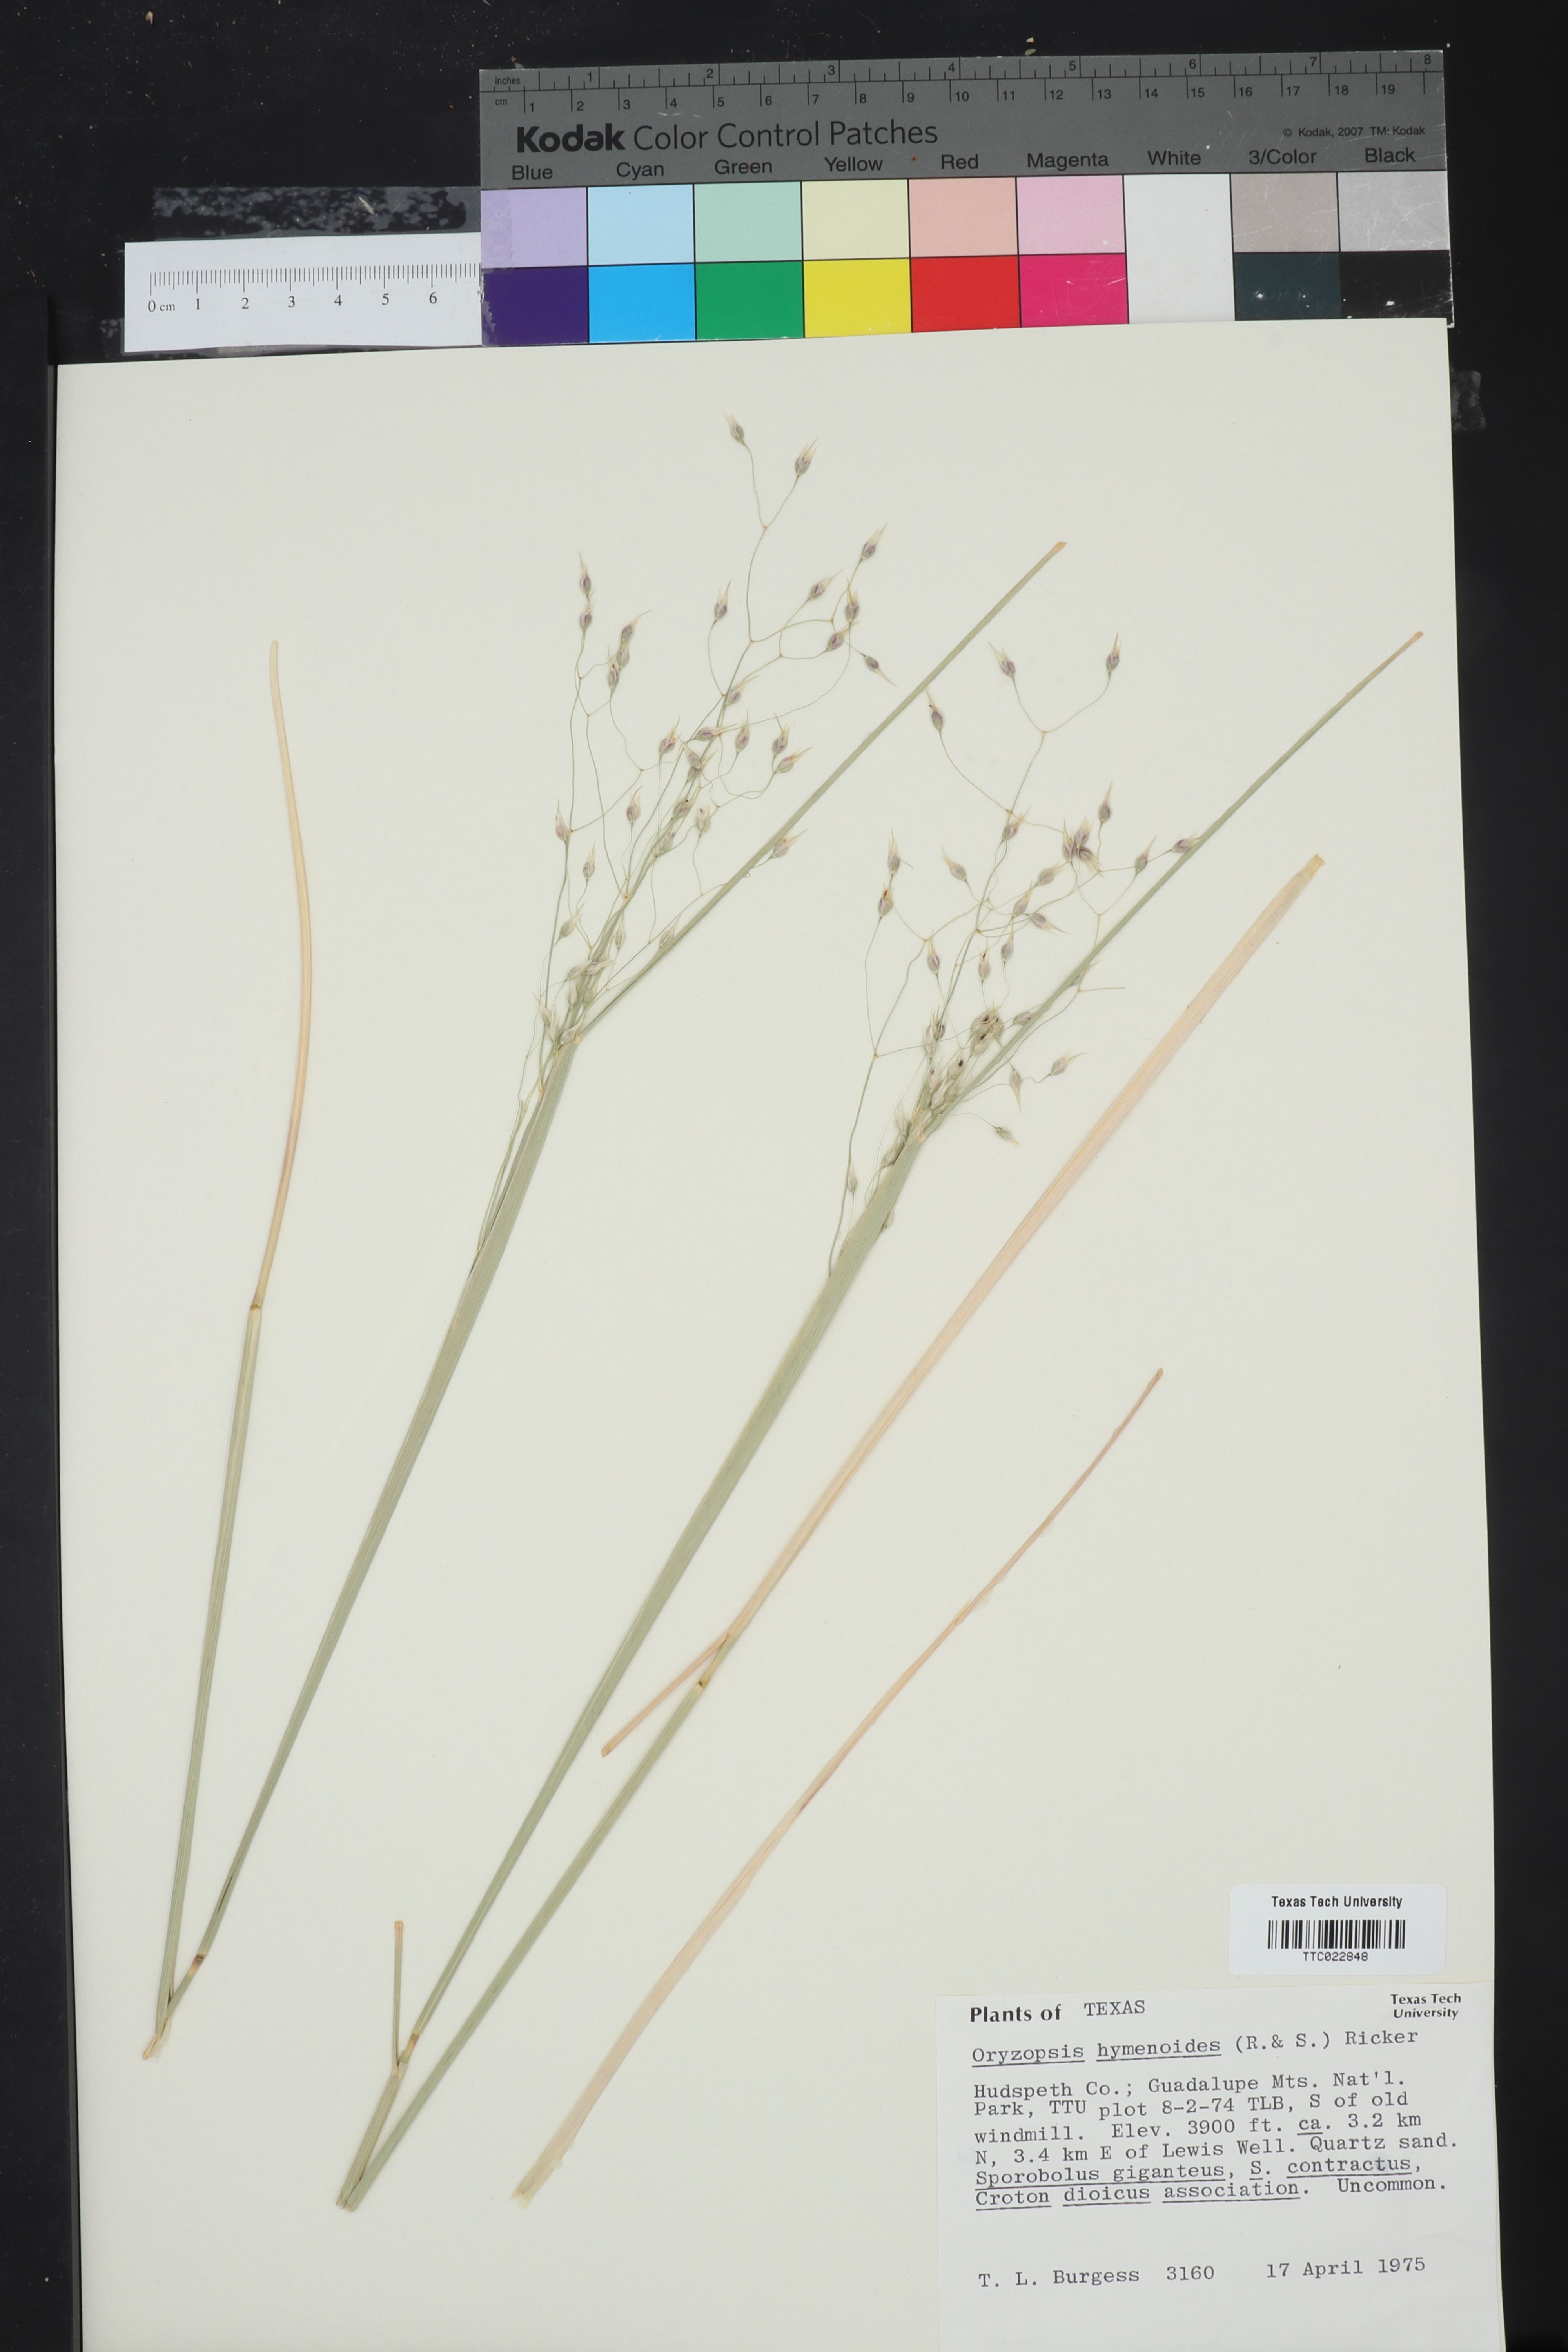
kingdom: Plantae
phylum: Tracheophyta
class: Liliopsida
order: Poales
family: Poaceae
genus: Eriocoma
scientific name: Eriocoma hymenoides
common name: Indian mountain ricegrass
